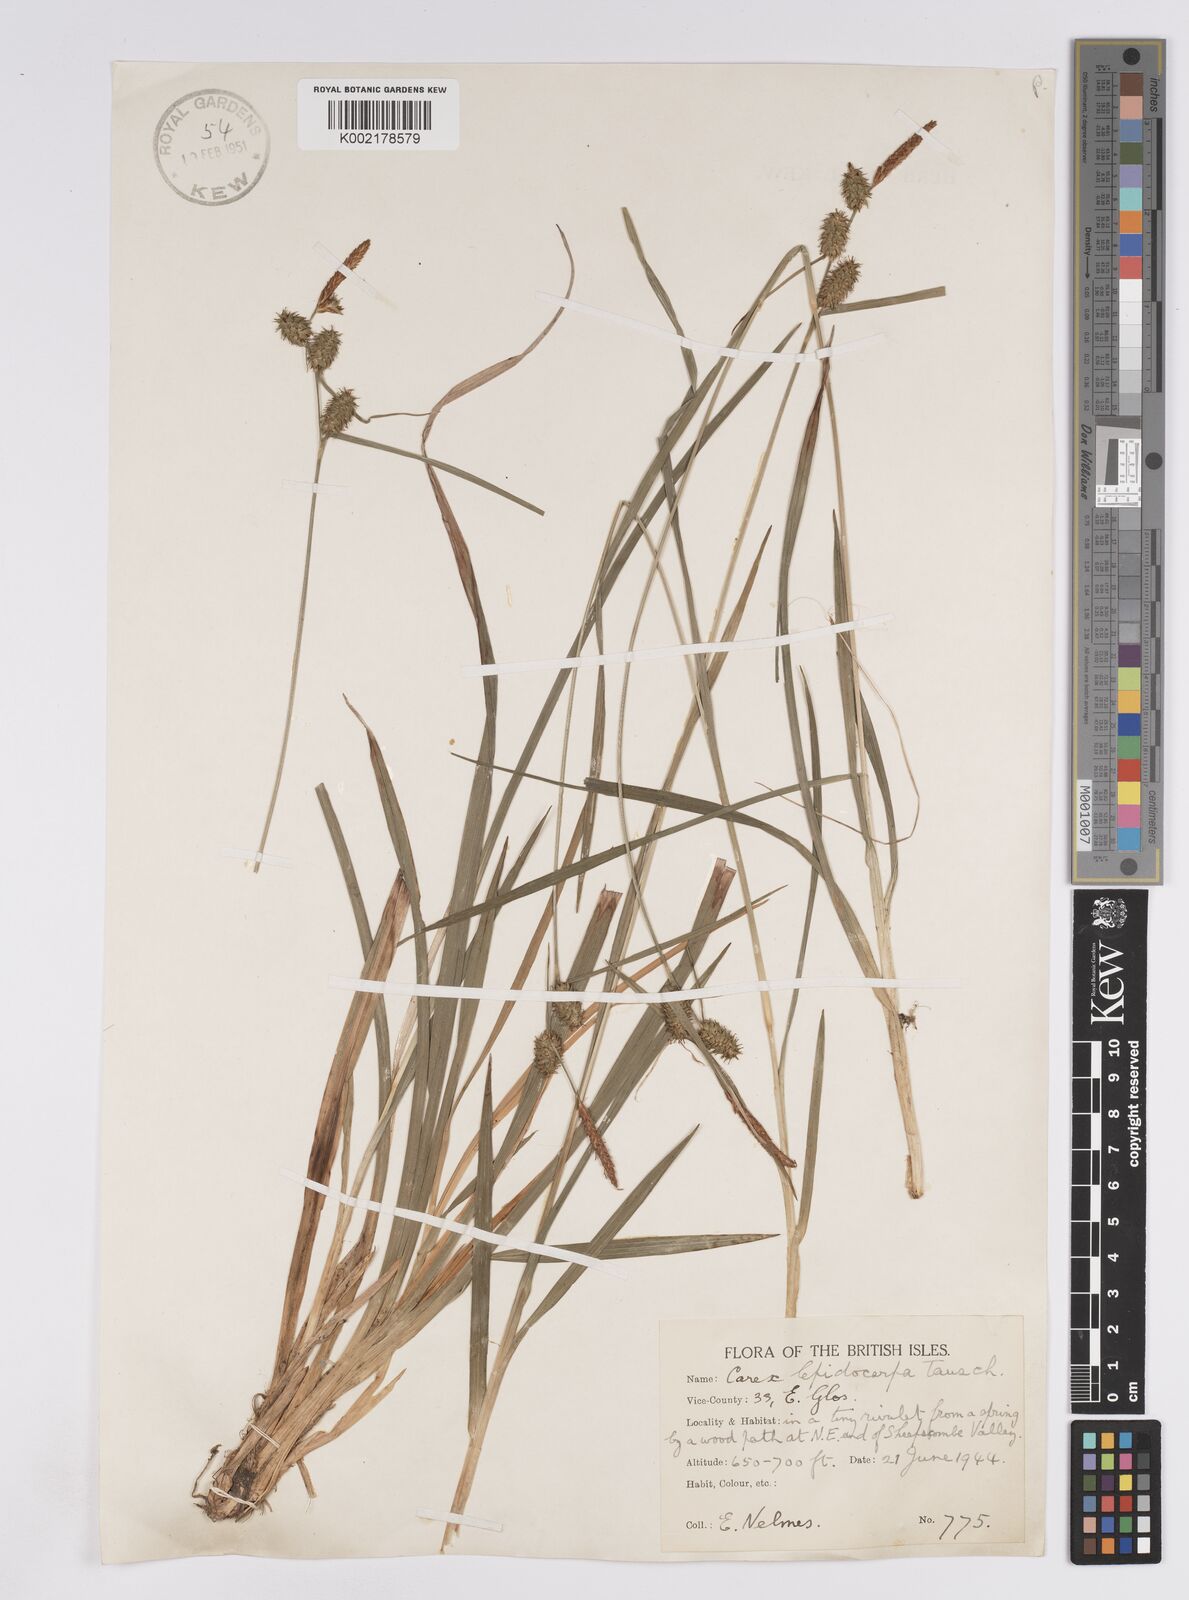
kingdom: Plantae
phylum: Tracheophyta
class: Liliopsida
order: Poales
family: Cyperaceae
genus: Carex
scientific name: Carex lepidocarpa
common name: Long-stalked yellow-sedge
